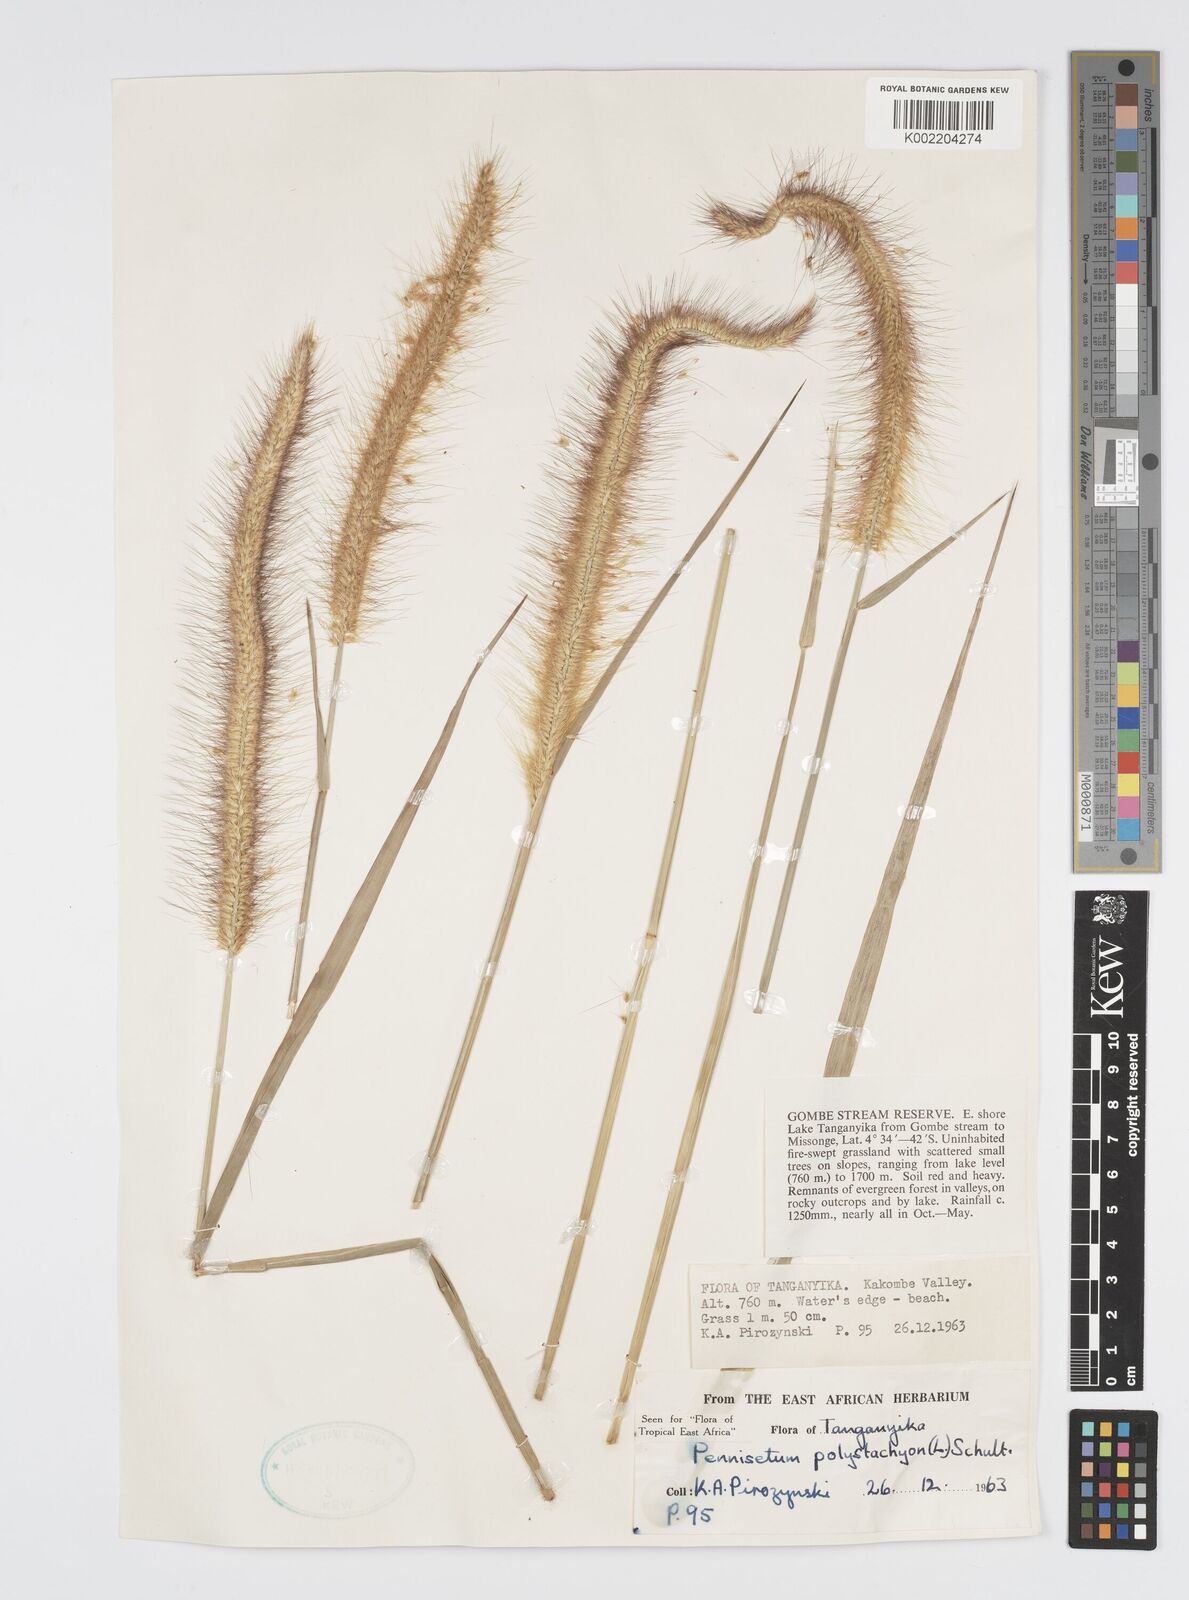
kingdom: Plantae
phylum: Tracheophyta
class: Liliopsida
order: Poales
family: Poaceae
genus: Setaria
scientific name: Setaria parviflora
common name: Knotroot bristle-grass
